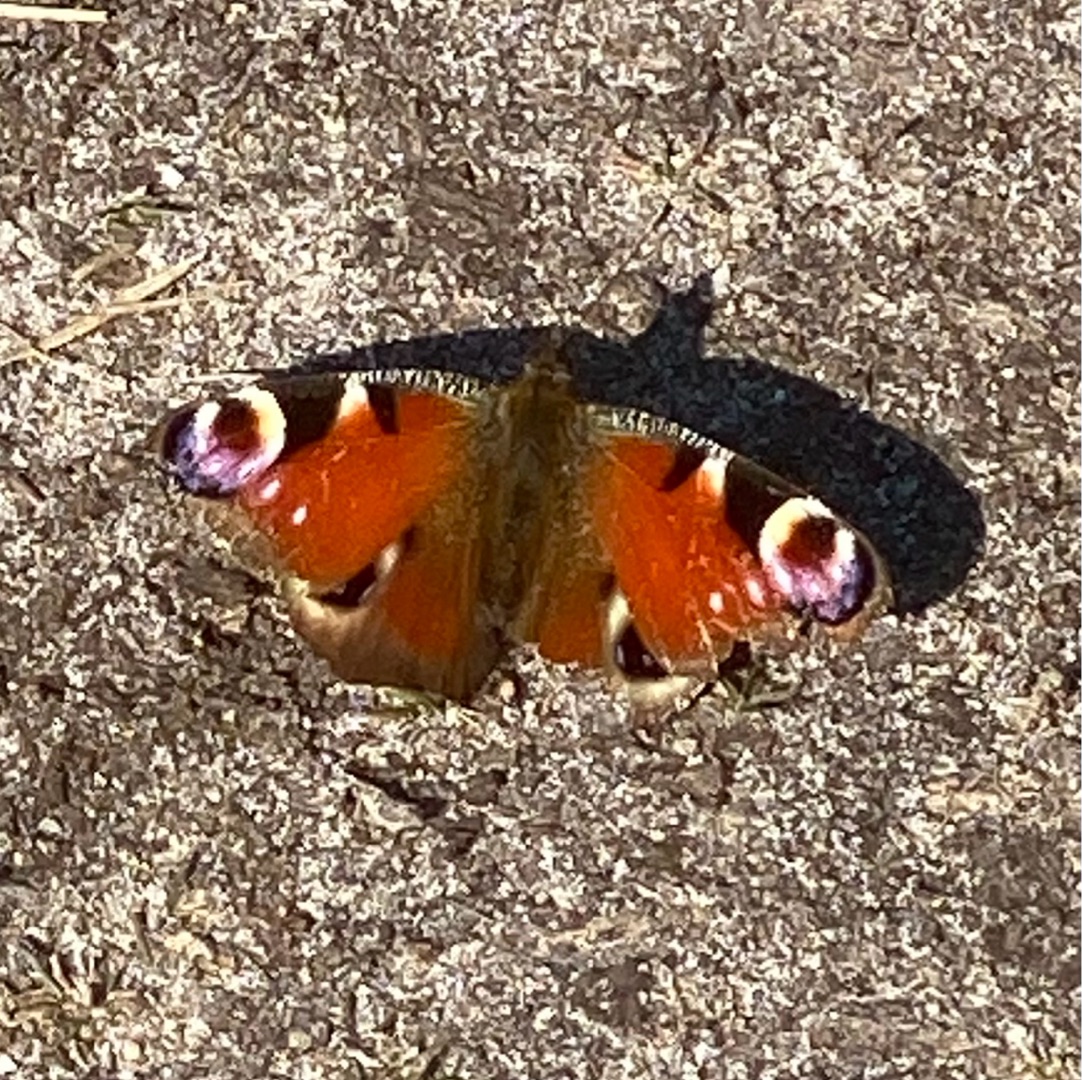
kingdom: Animalia
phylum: Arthropoda
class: Insecta
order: Lepidoptera
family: Nymphalidae
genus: Aglais
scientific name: Aglais io
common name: Dagpåfugleøje
